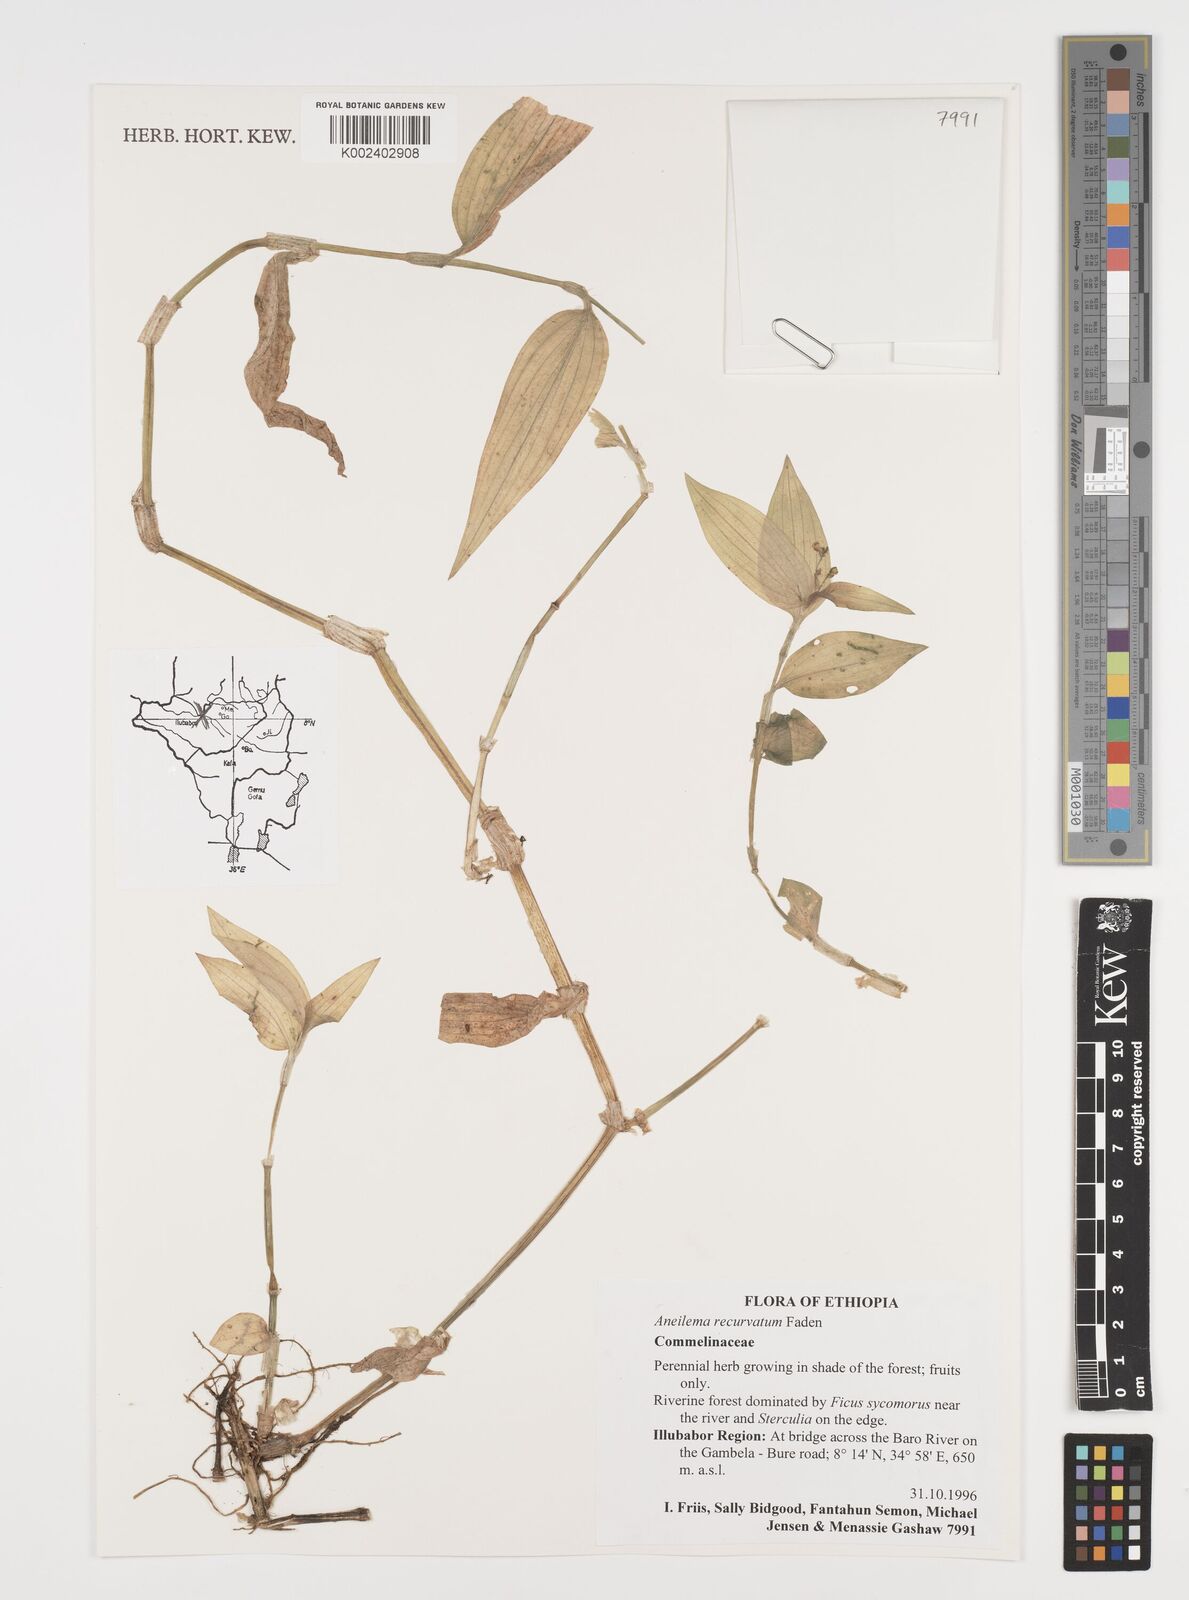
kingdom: Plantae
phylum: Tracheophyta
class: Liliopsida
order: Commelinales
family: Commelinaceae
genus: Aneilema
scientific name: Aneilema recurvatum
